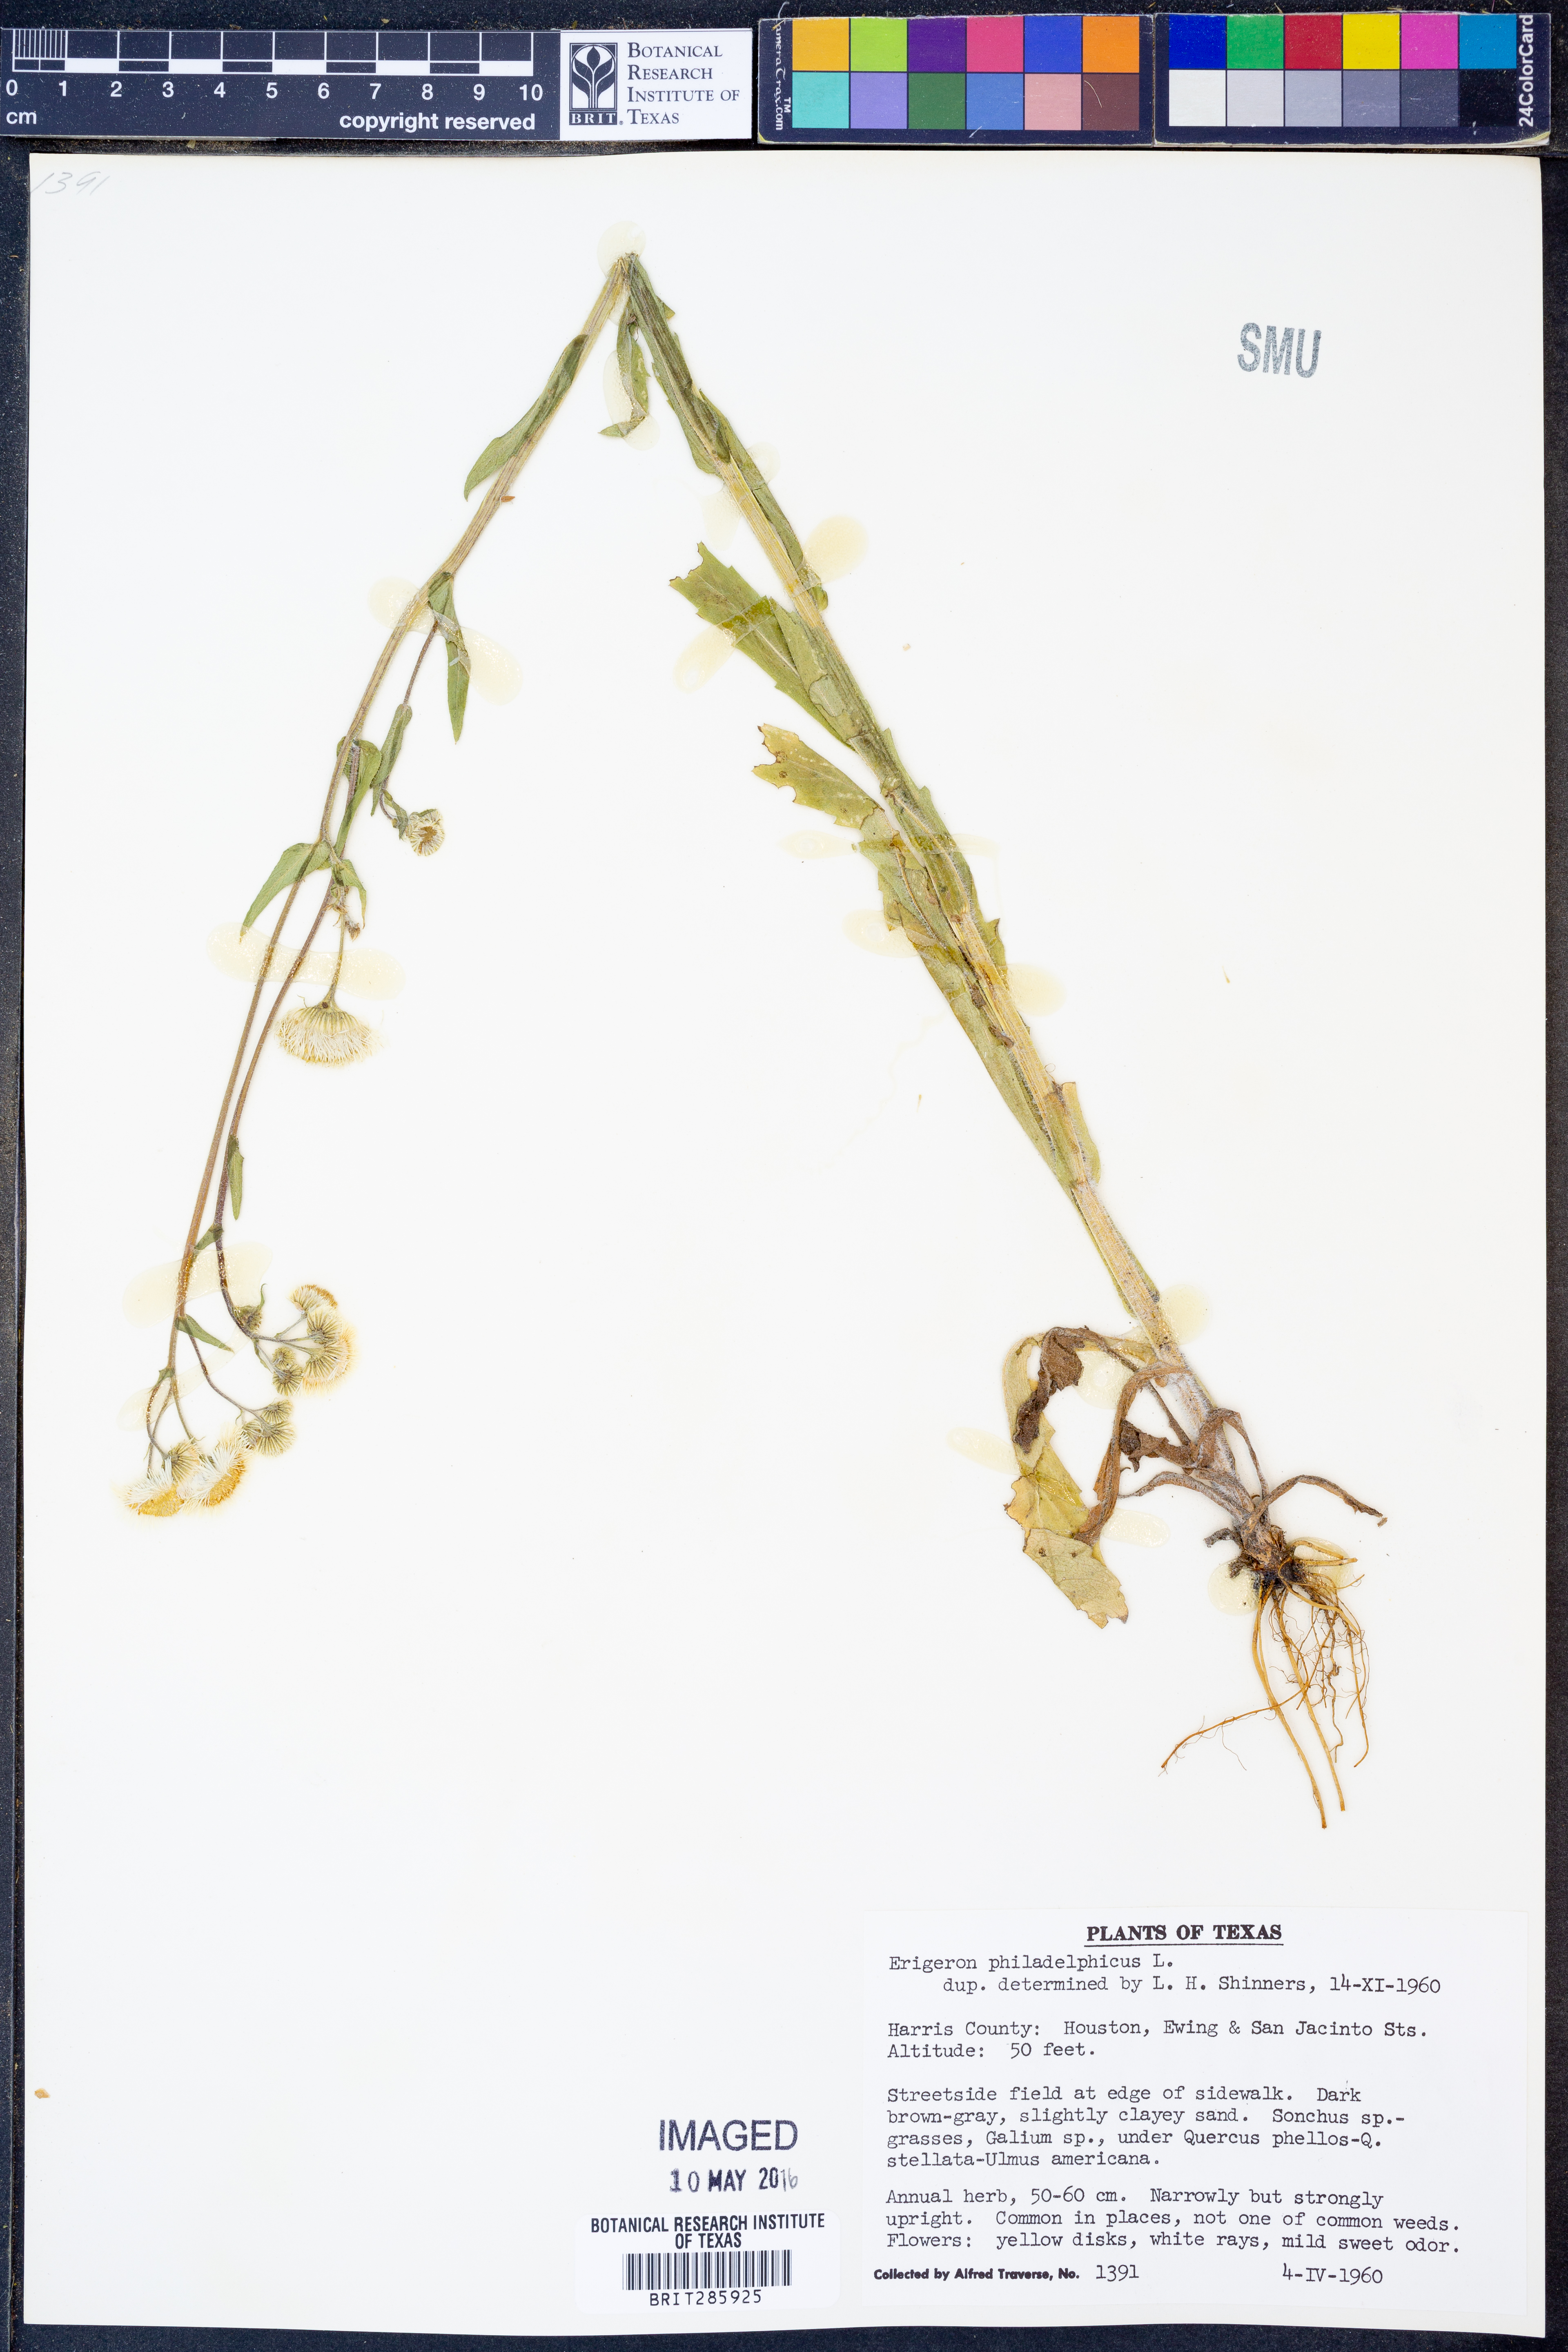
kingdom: Plantae
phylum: Tracheophyta
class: Magnoliopsida
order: Asterales
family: Asteraceae
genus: Erigeron
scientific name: Erigeron philadelphicus
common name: Robin's-plantain
